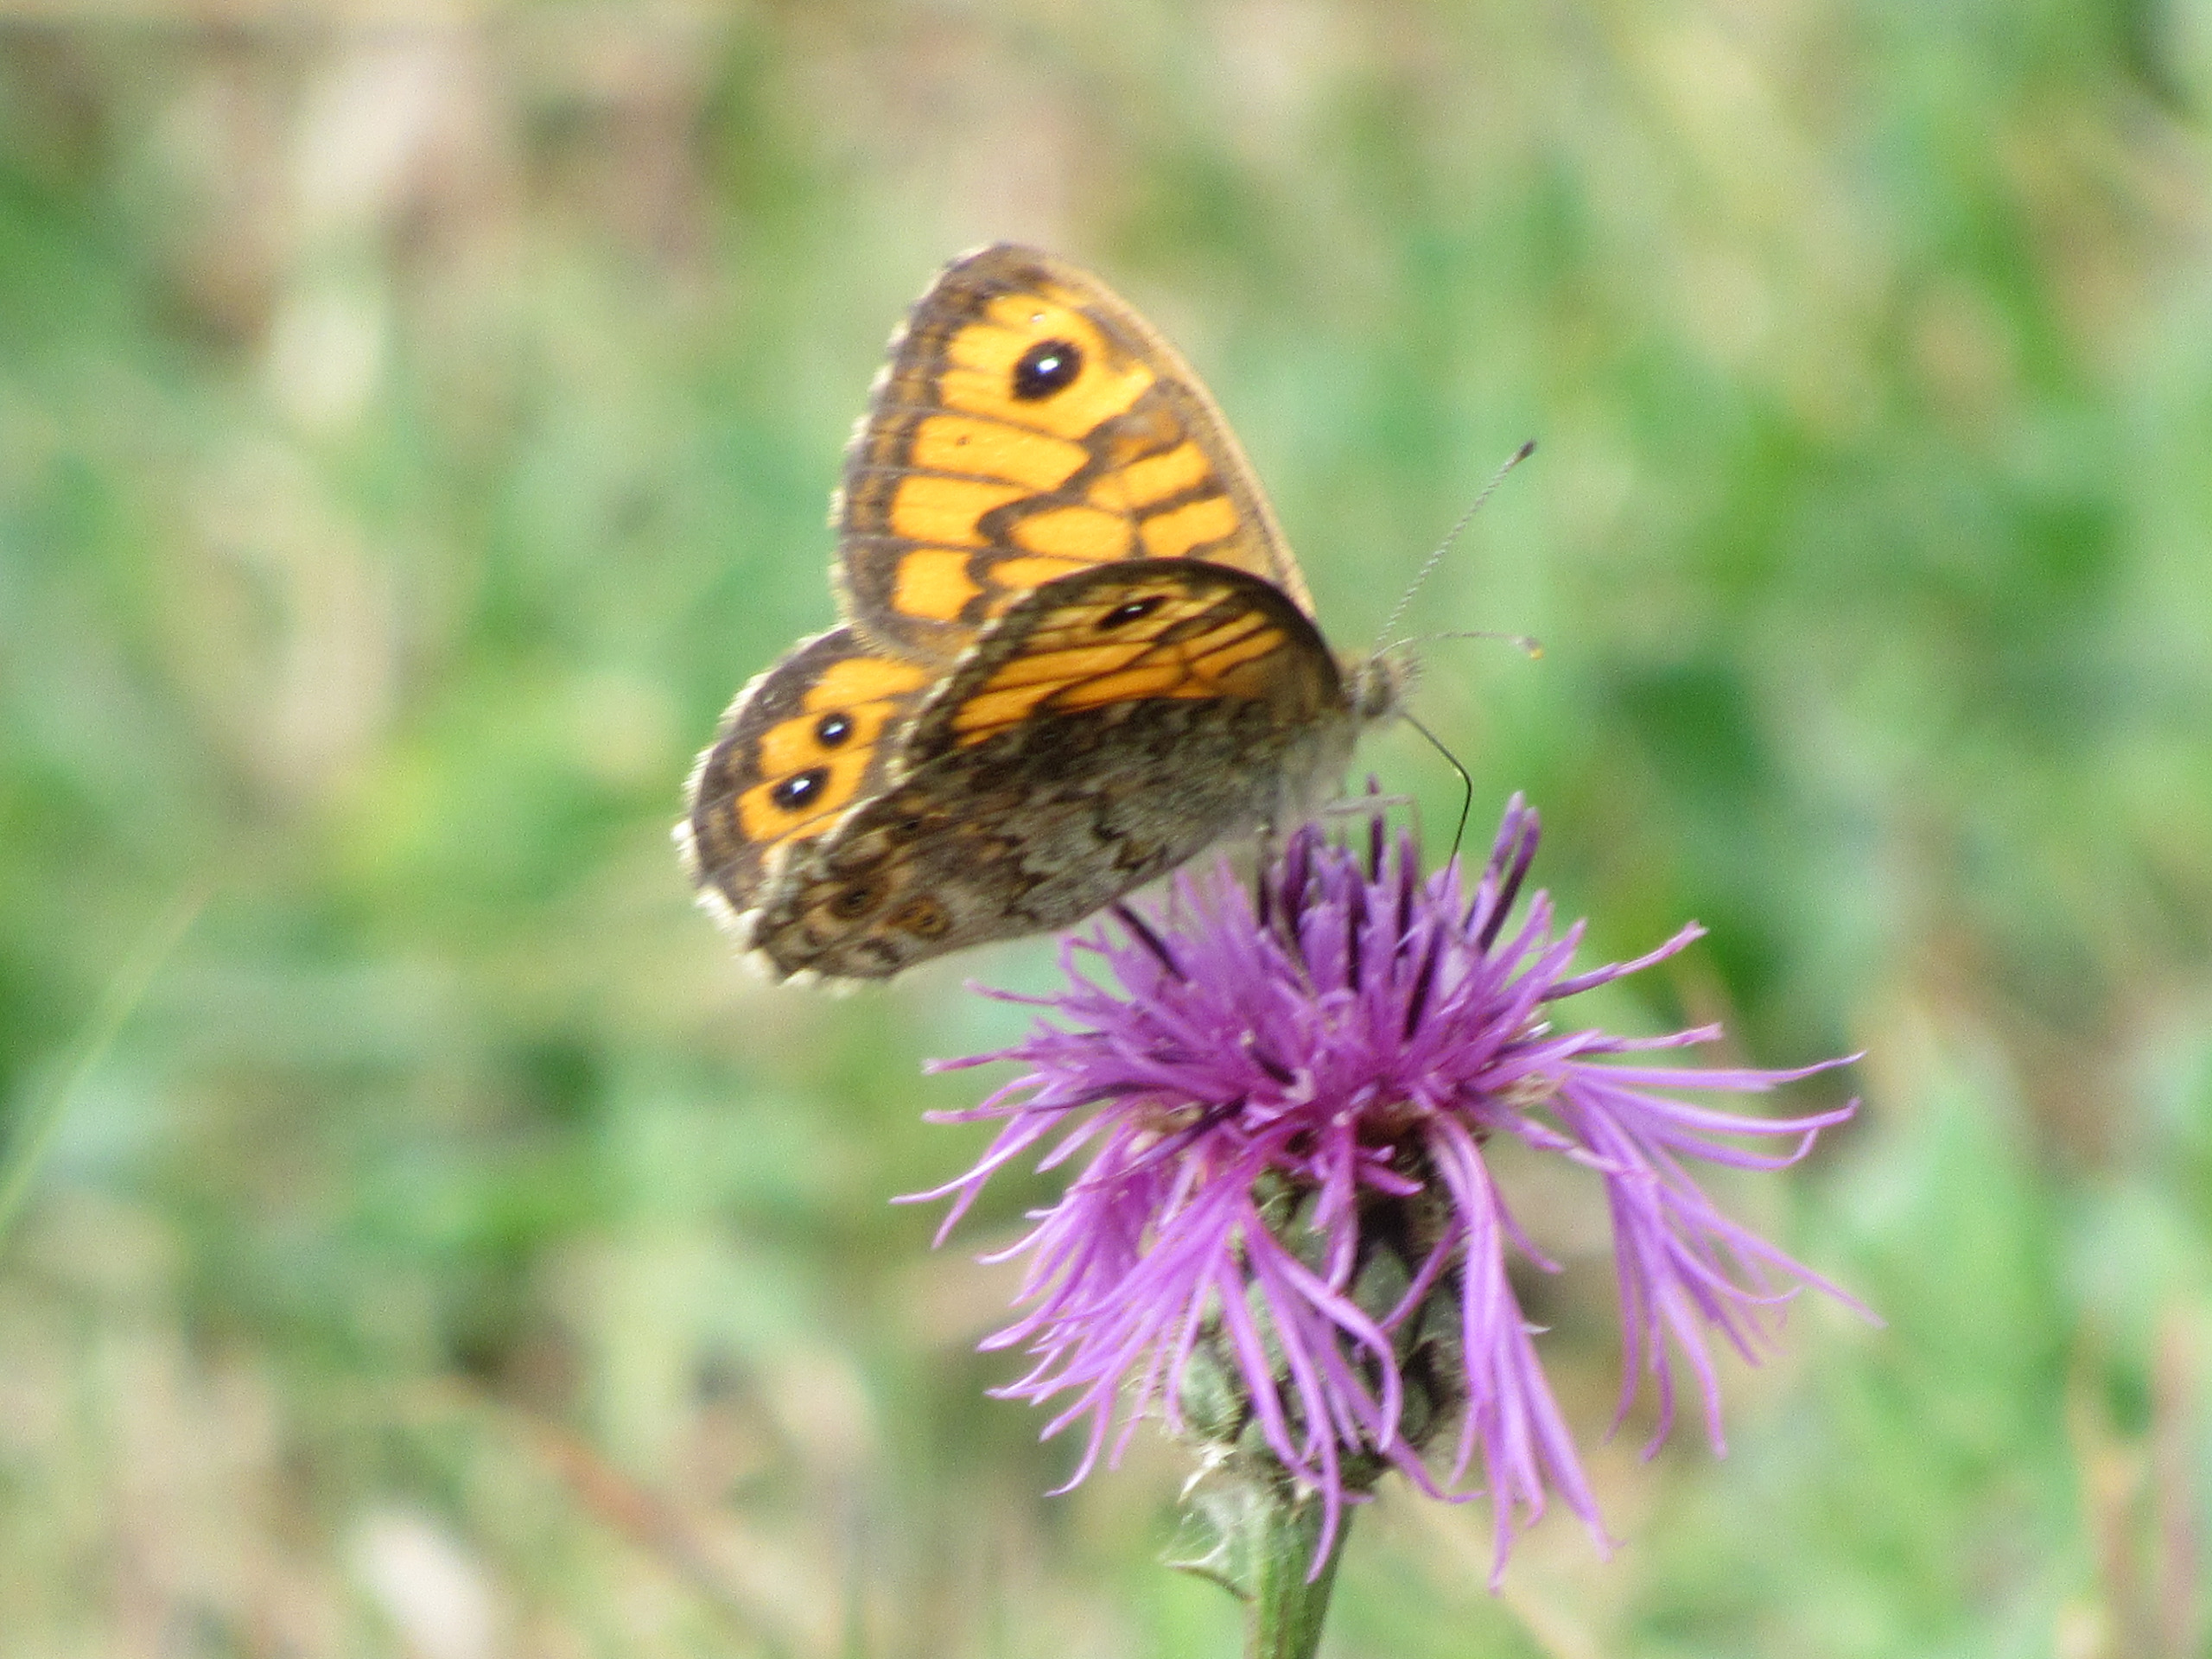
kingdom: Animalia
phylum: Arthropoda
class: Insecta
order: Lepidoptera
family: Nymphalidae
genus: Pararge
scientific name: Pararge Lasiommata megera
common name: Vejrandøje
